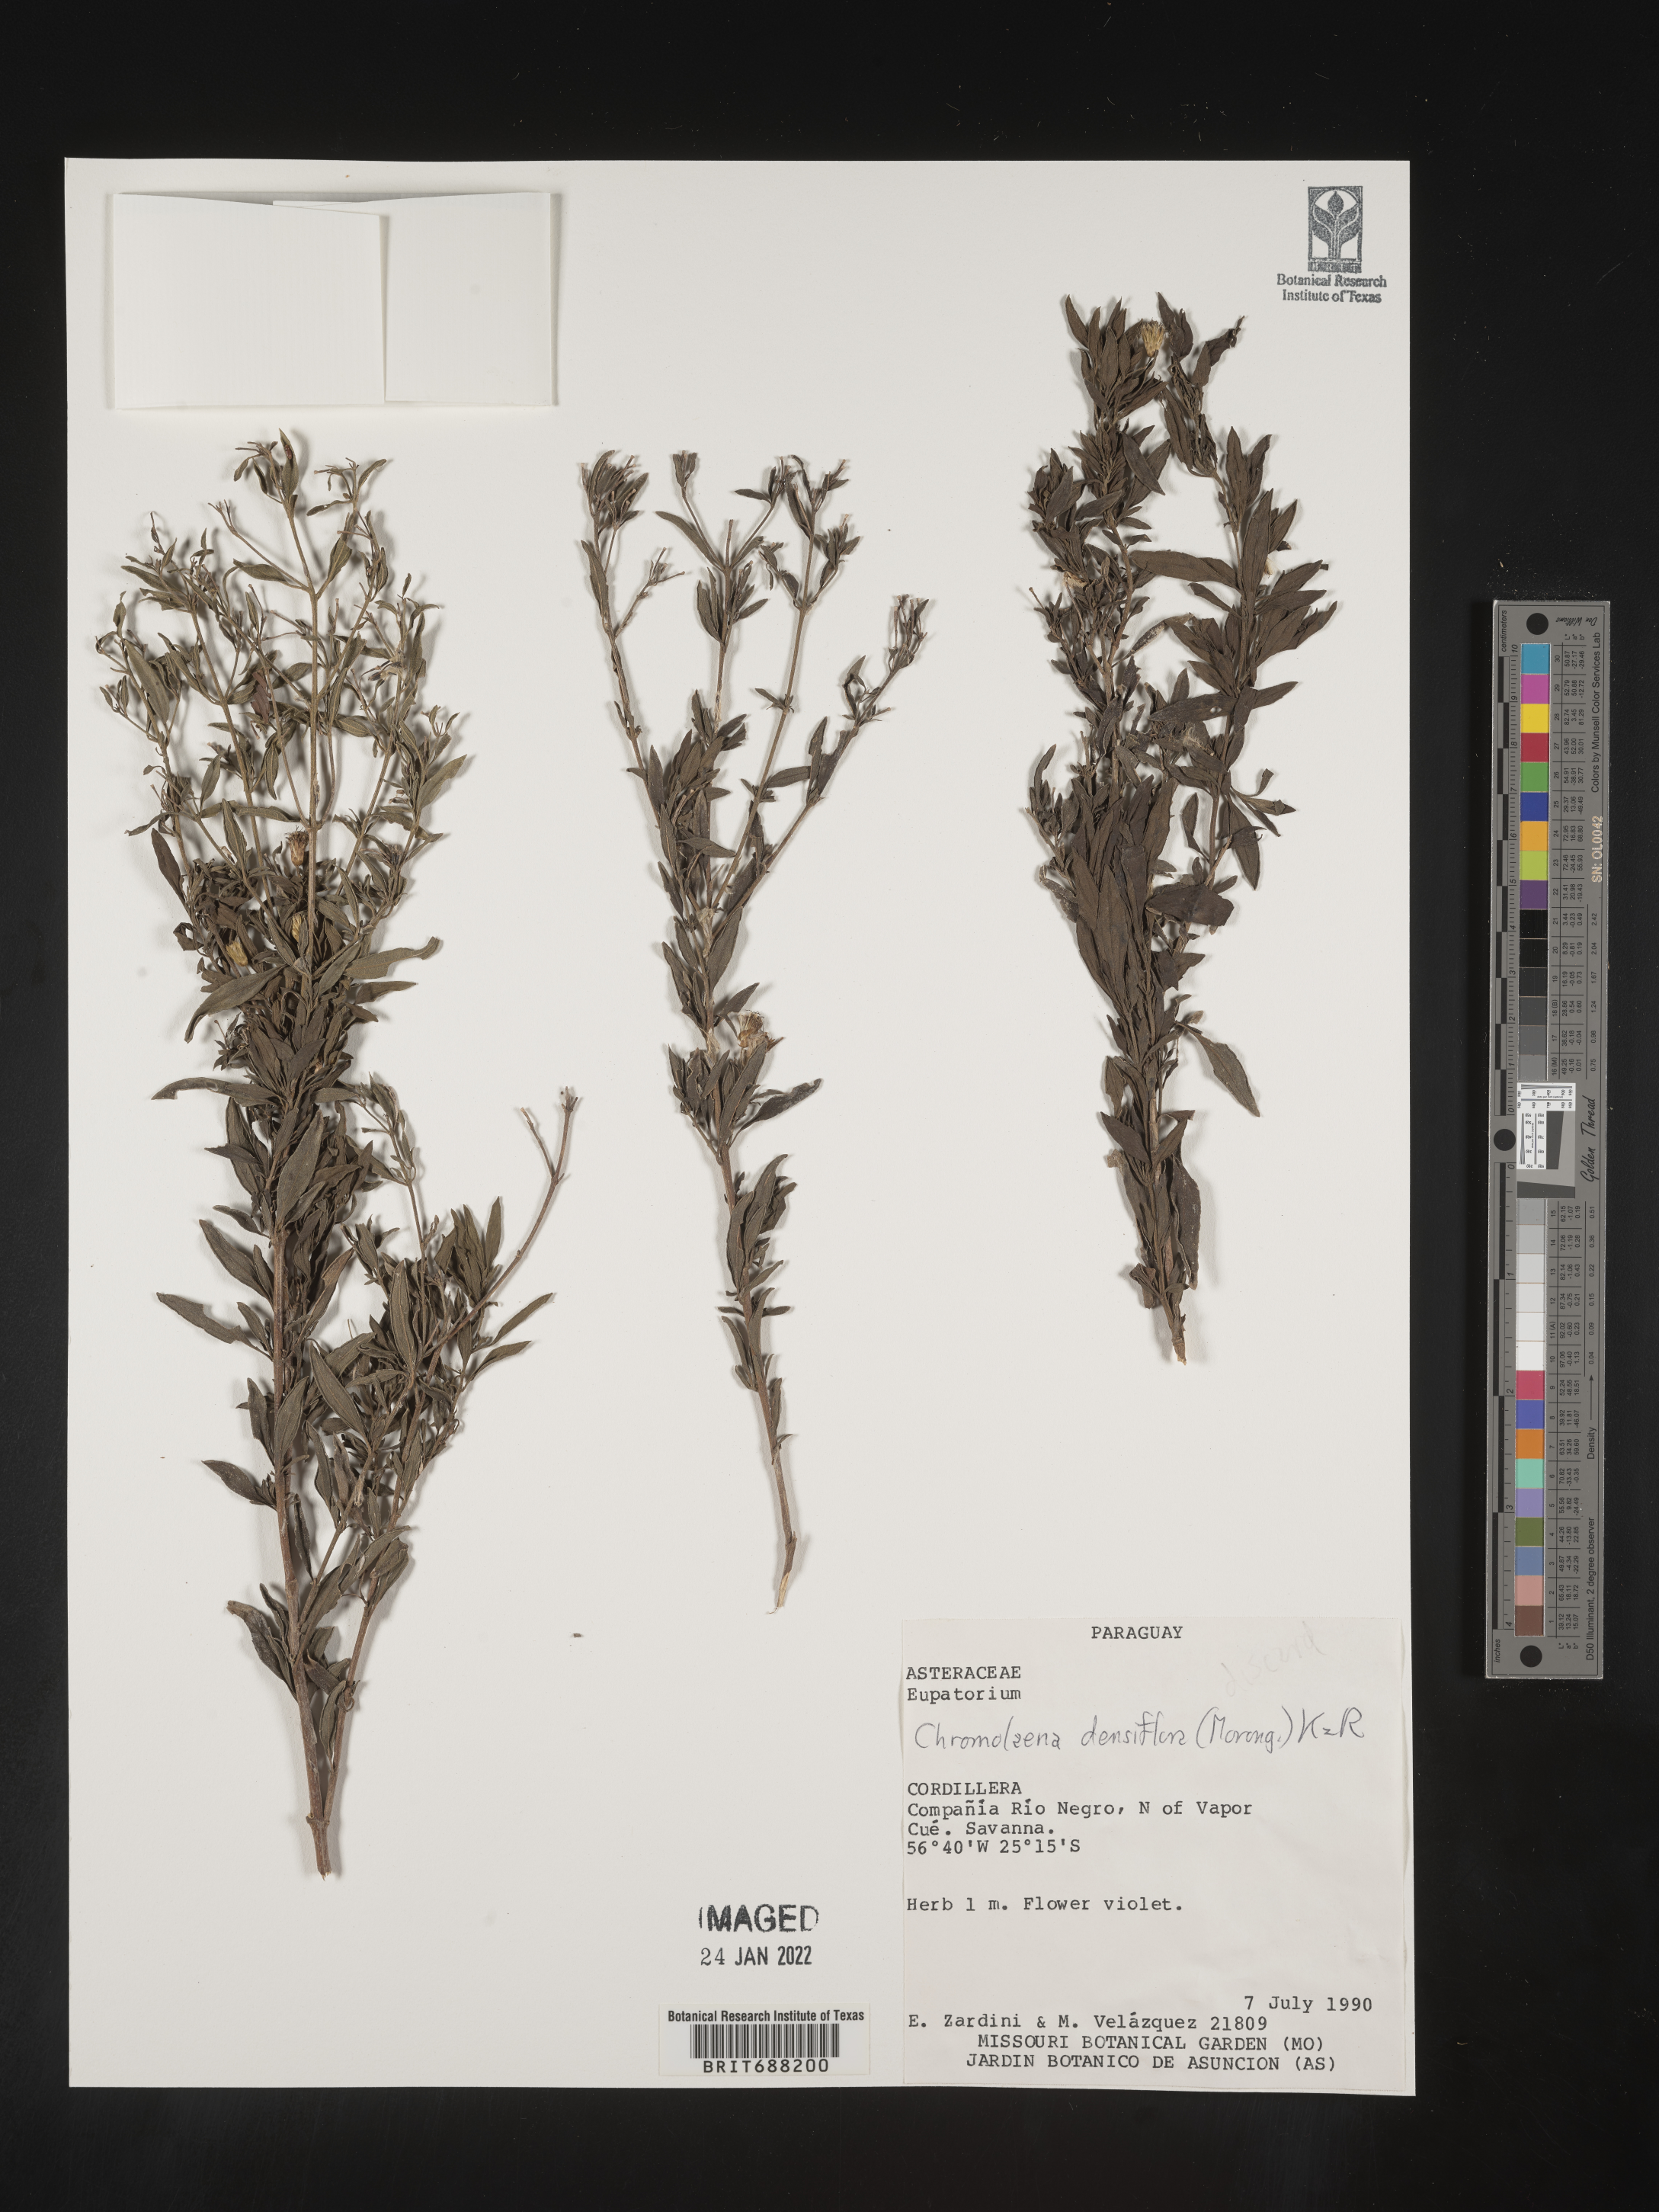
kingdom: Plantae
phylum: Tracheophyta
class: Magnoliopsida
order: Asterales
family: Asteraceae
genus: Chromolaena
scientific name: Chromolaena
